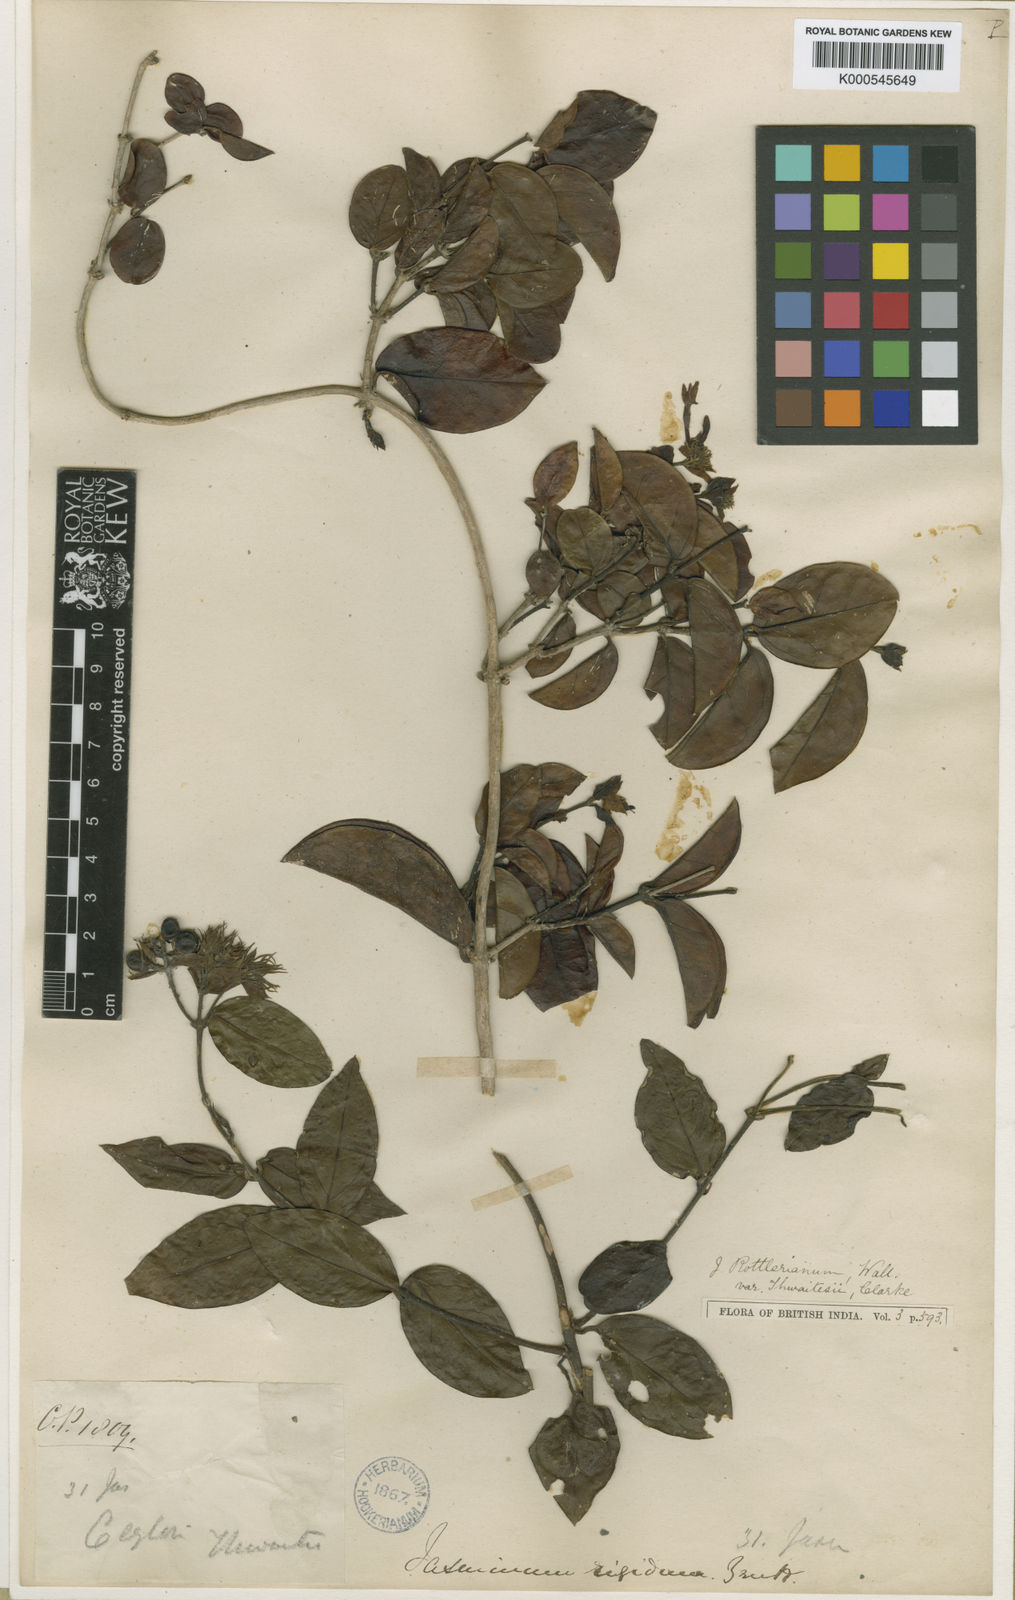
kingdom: Plantae
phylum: Tracheophyta
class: Magnoliopsida
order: Lamiales
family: Oleaceae
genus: Jasminum
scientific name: Jasminum coarctatum
